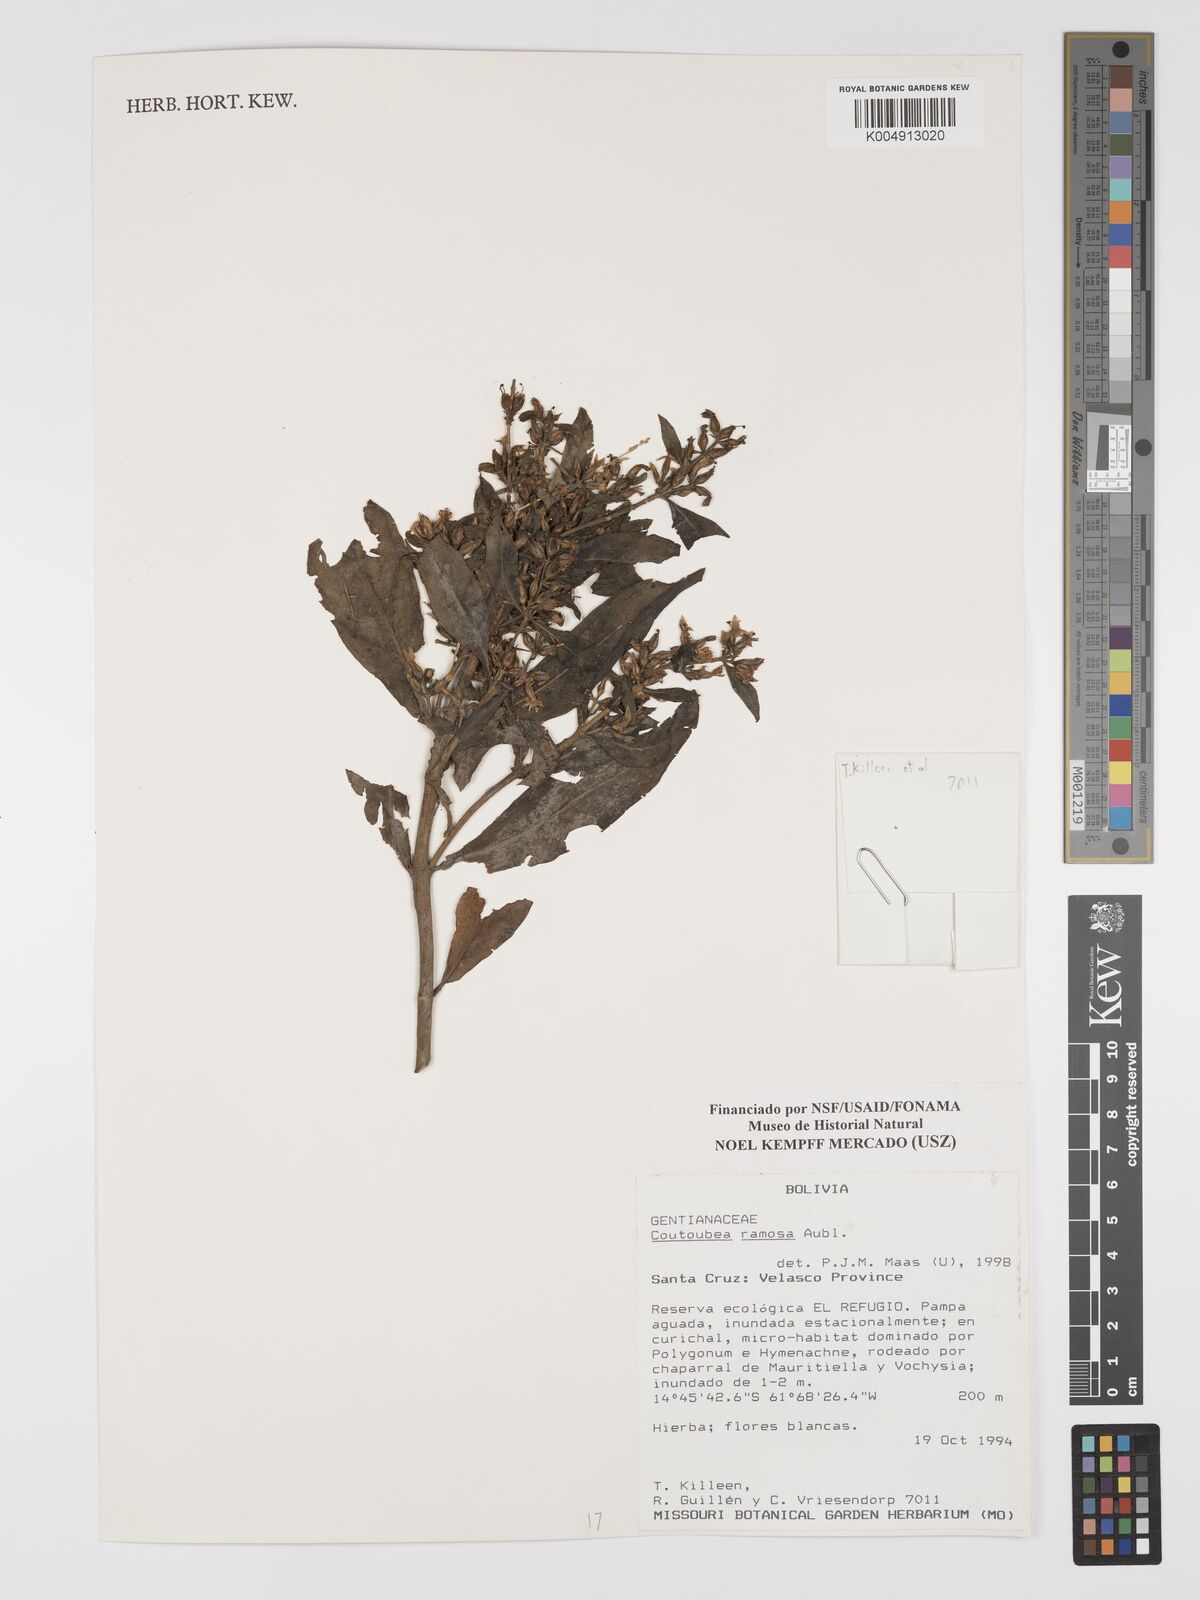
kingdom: Plantae
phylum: Tracheophyta
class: Magnoliopsida
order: Gentianales
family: Gentianaceae
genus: Coutoubea
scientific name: Coutoubea ramosa
